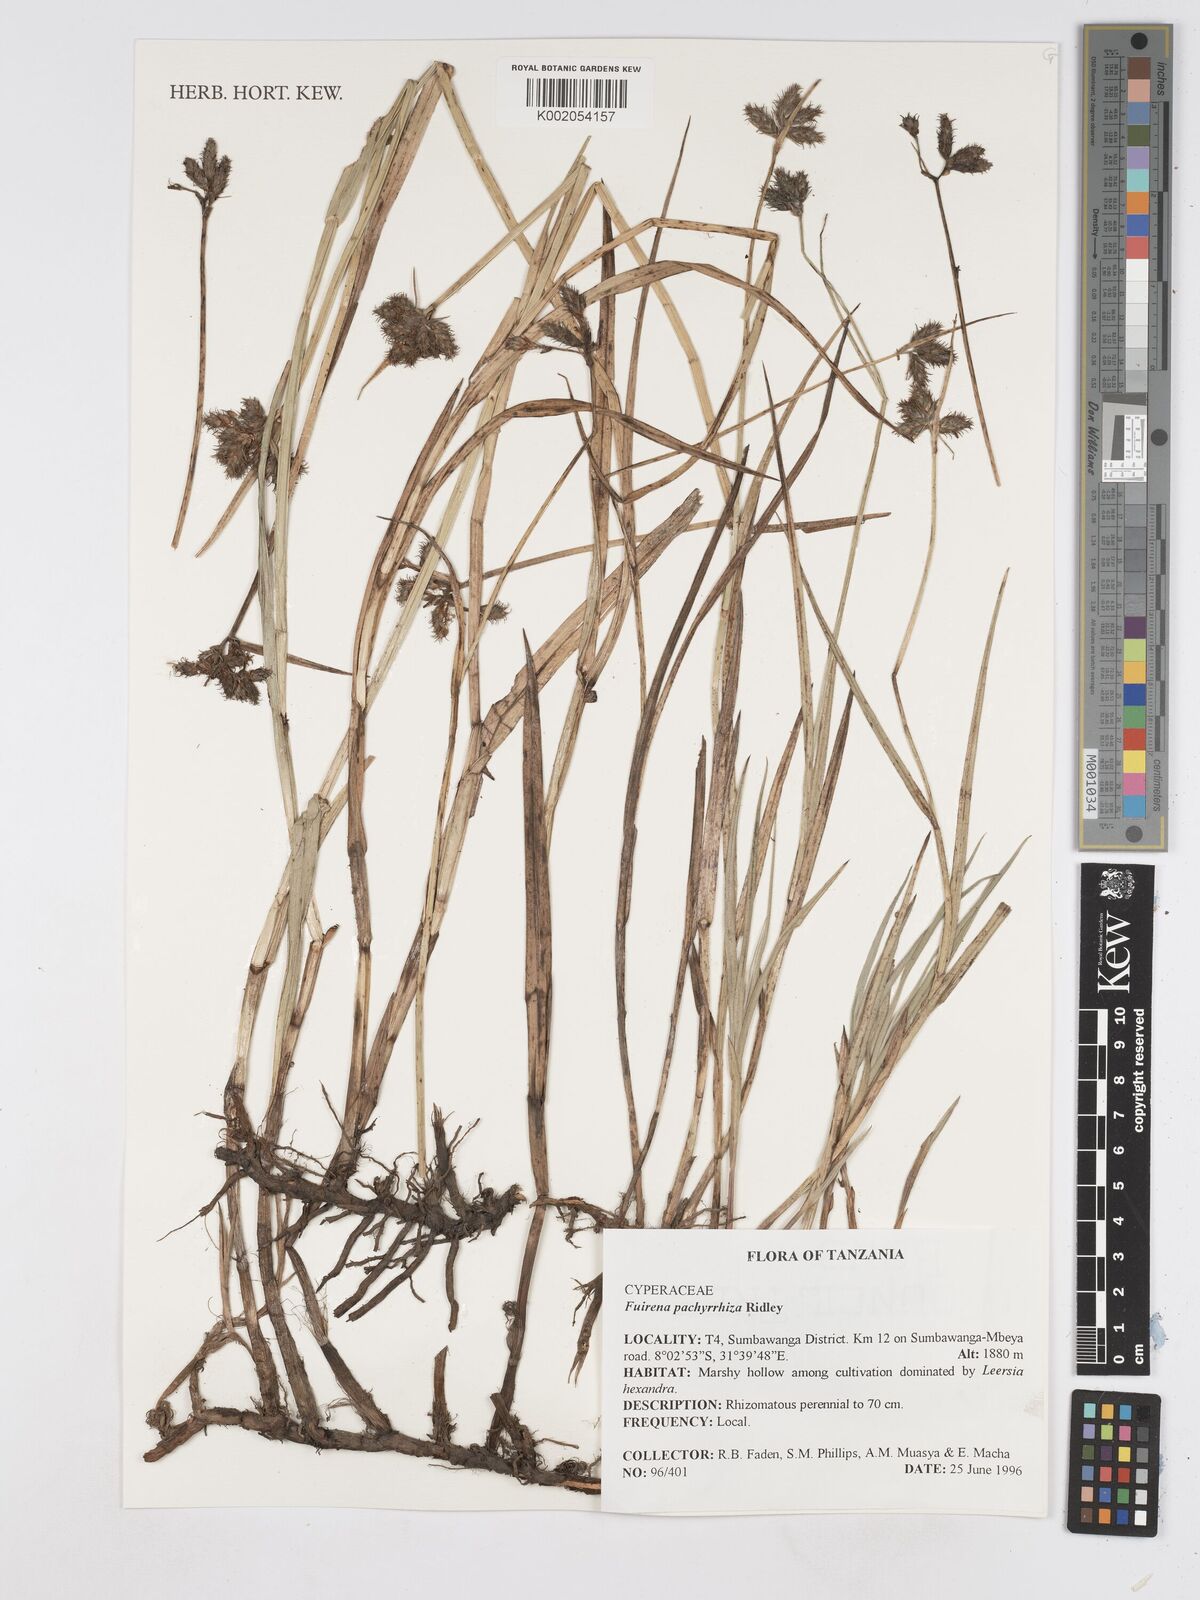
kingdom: Plantae
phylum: Tracheophyta
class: Liliopsida
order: Poales
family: Cyperaceae
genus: Fuirena
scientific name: Fuirena pachyrrhiza
